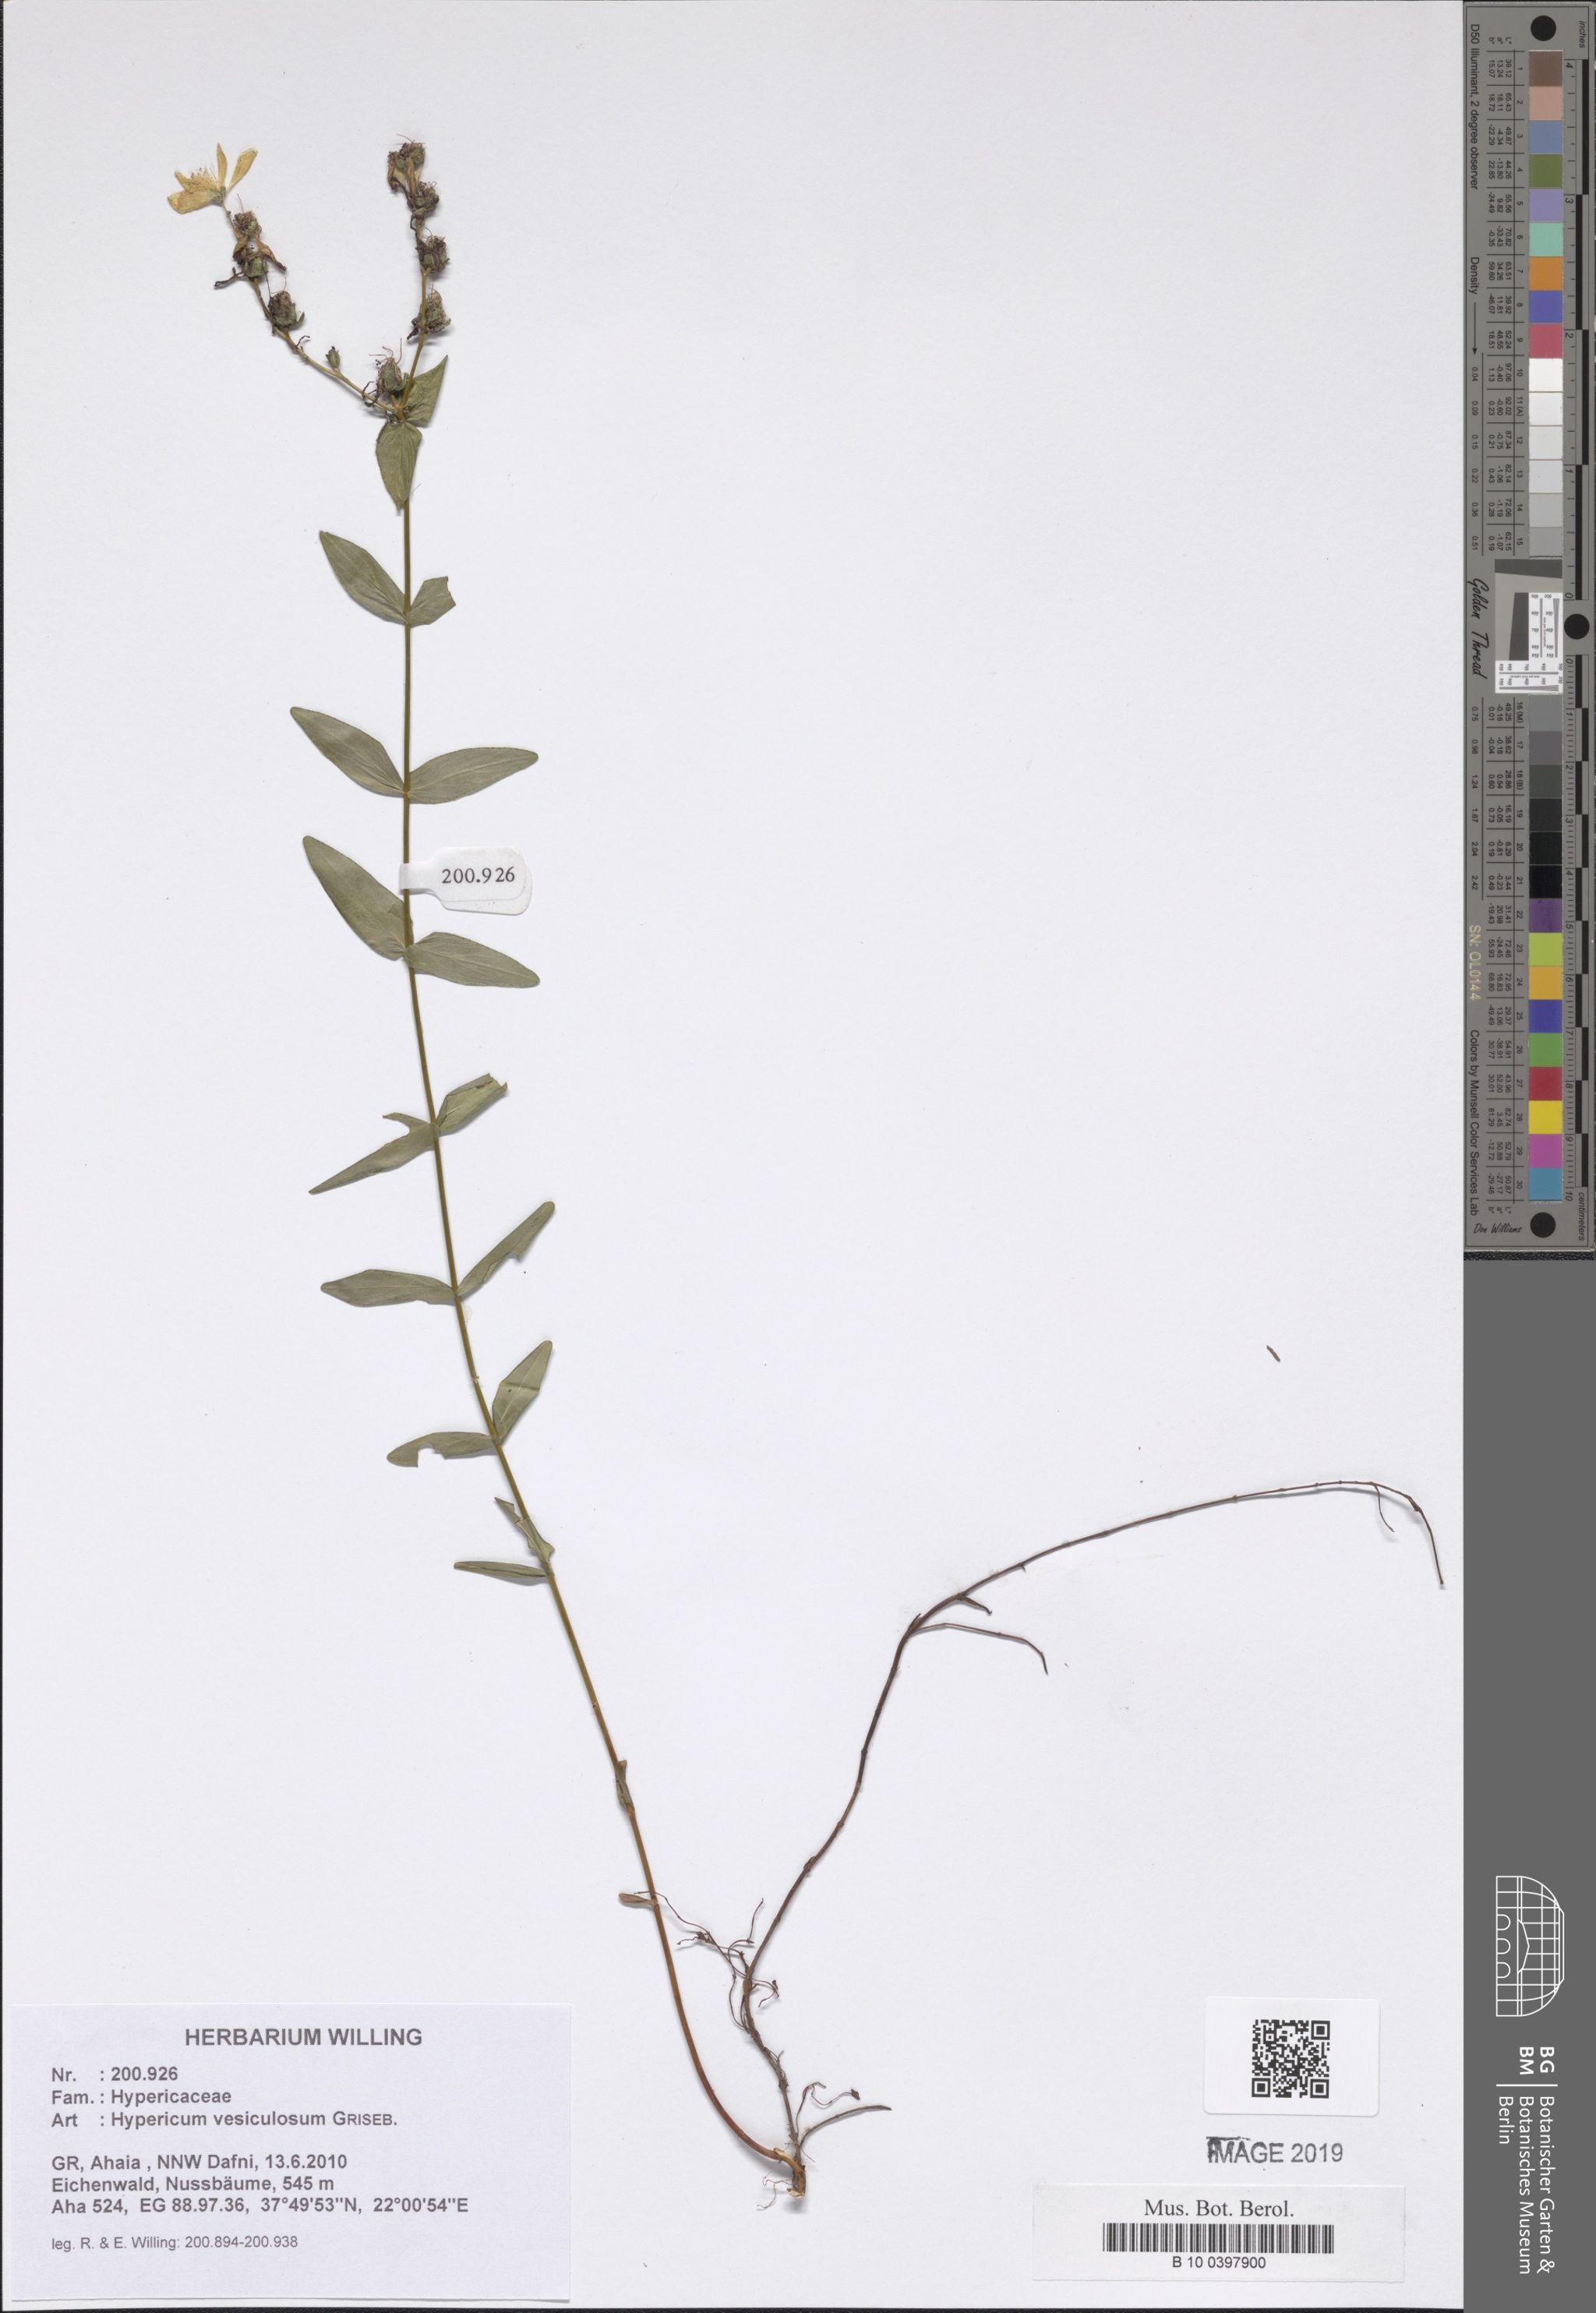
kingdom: Plantae
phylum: Tracheophyta
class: Magnoliopsida
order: Malpighiales
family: Hypericaceae
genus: Hypericum
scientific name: Hypericum vesiculosum
